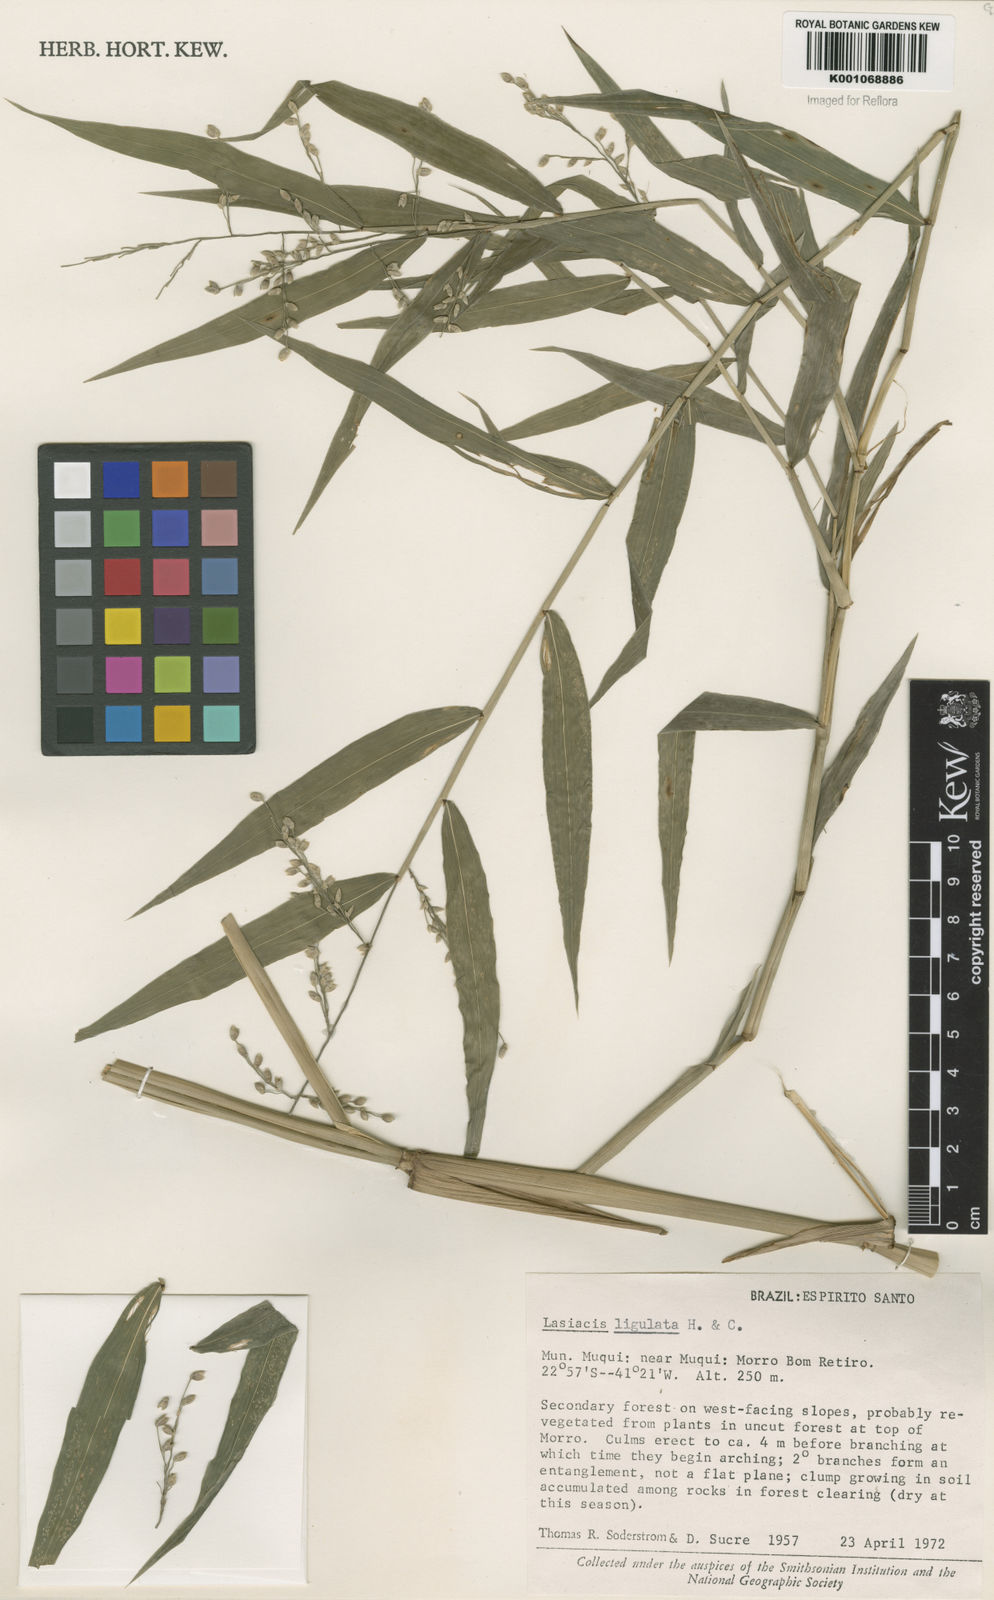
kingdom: Plantae
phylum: Tracheophyta
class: Liliopsida
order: Poales
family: Poaceae
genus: Lasiacis
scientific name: Lasiacis ligulata
